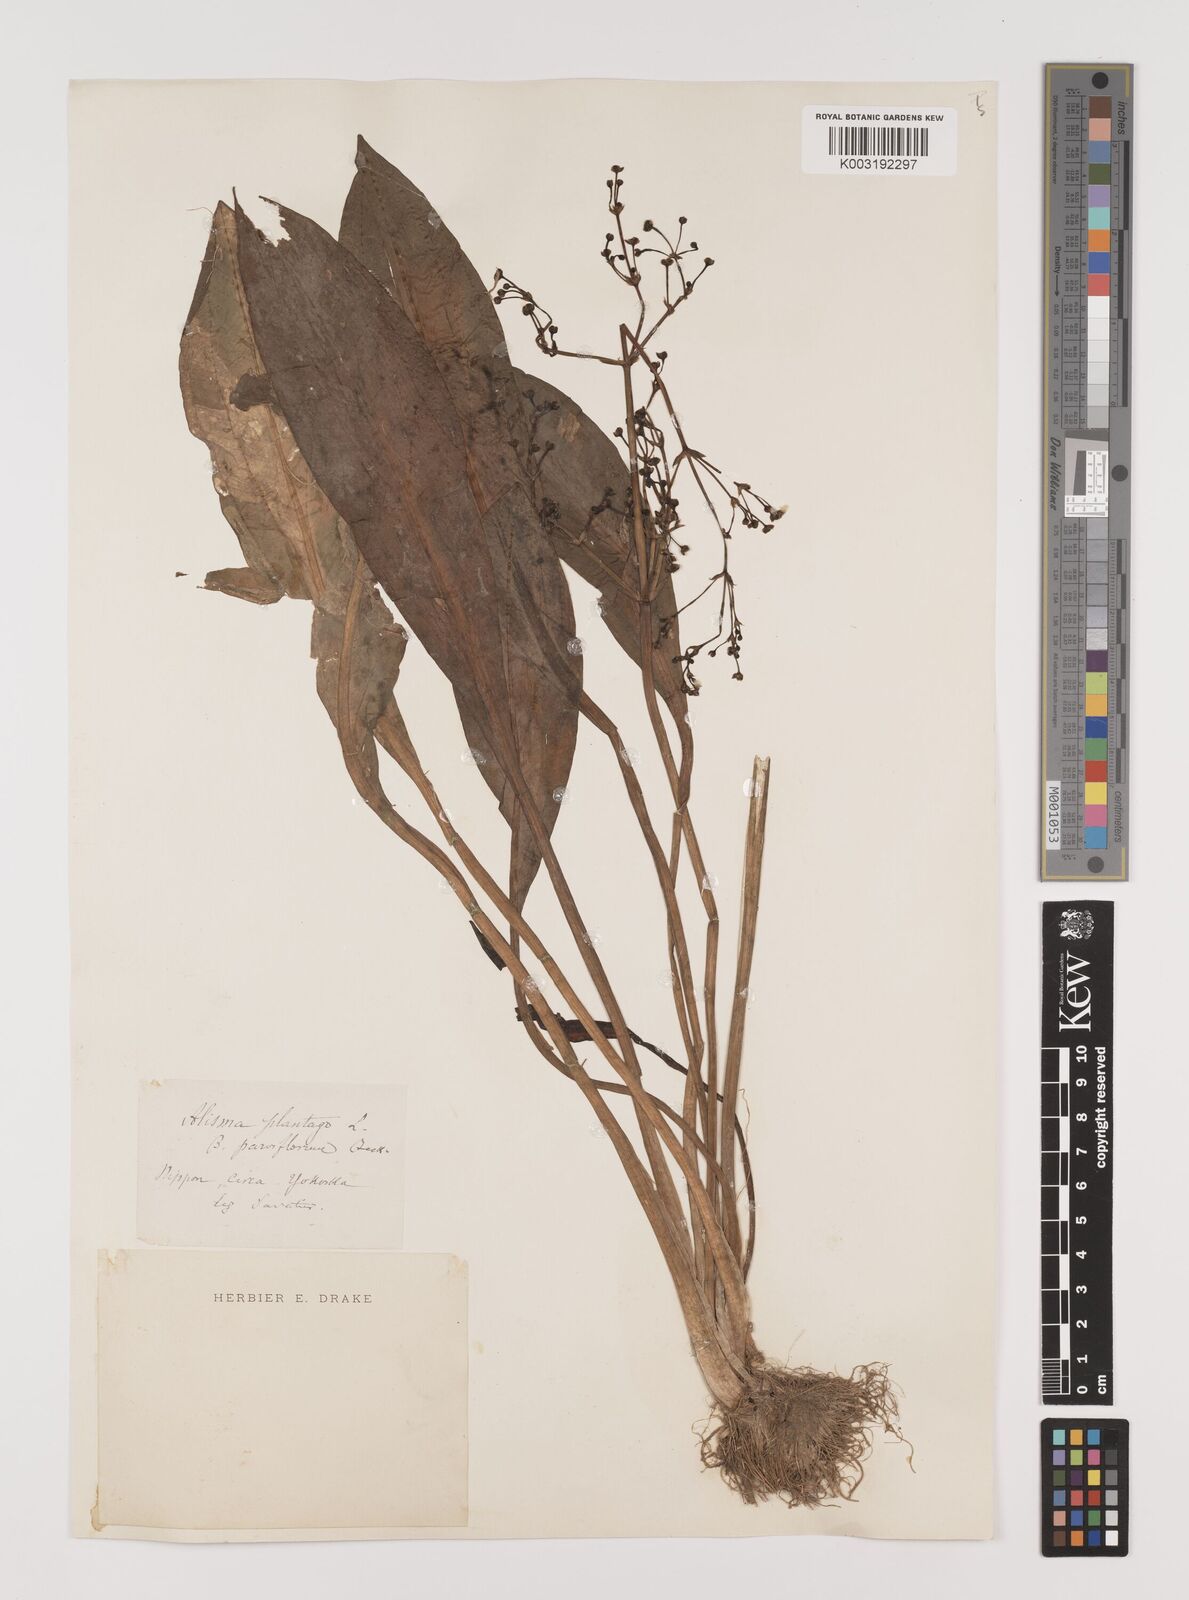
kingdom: Plantae
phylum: Tracheophyta
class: Liliopsida
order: Alismatales
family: Alismataceae
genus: Alisma
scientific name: Alisma canaliculatum
